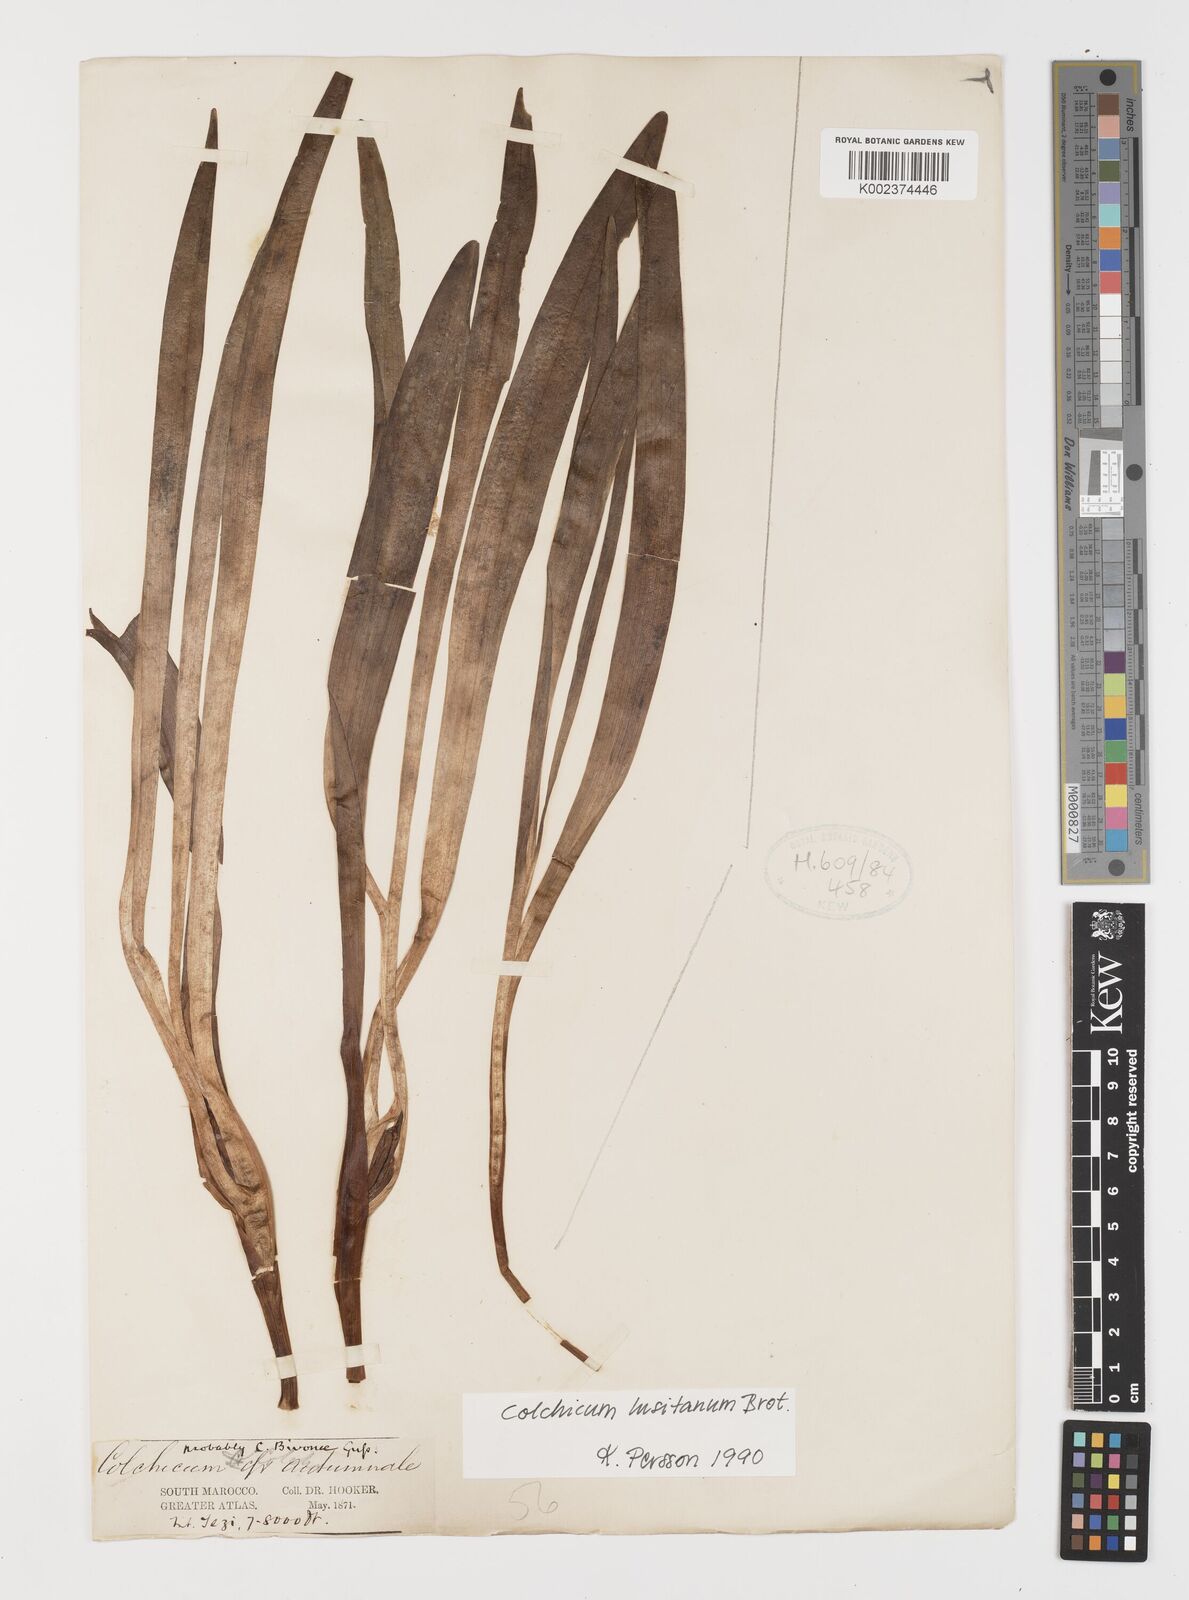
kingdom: Plantae
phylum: Tracheophyta
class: Liliopsida
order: Liliales
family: Colchicaceae
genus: Colchicum
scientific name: Colchicum lusitanum
